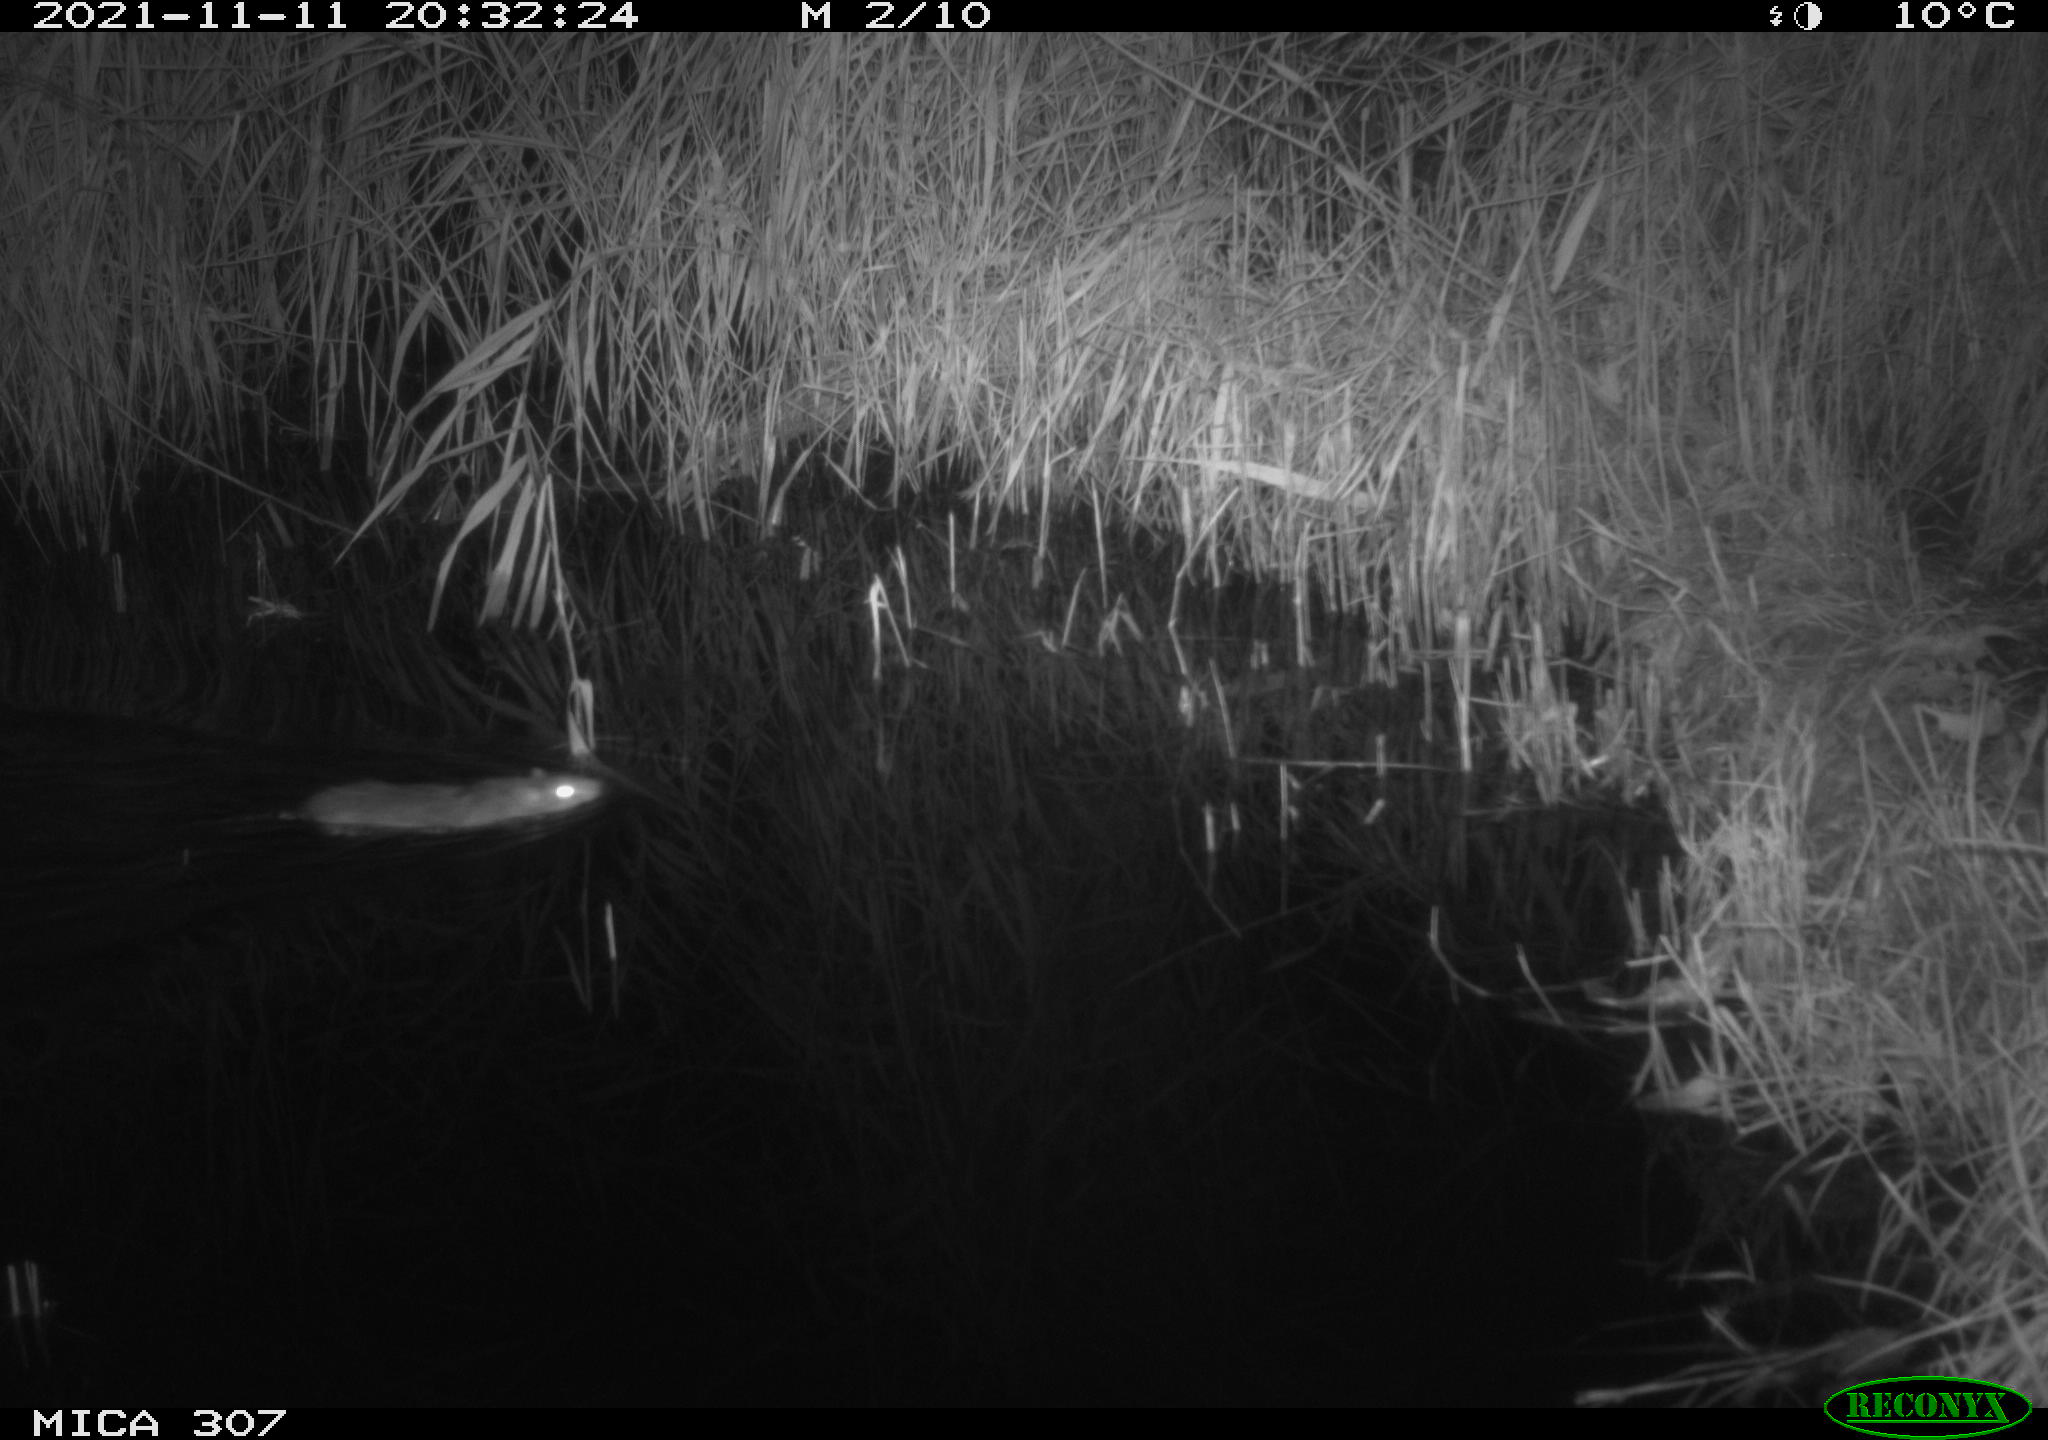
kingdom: Animalia
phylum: Chordata
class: Mammalia
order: Rodentia
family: Muridae
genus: Rattus
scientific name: Rattus norvegicus
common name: Brown rat
